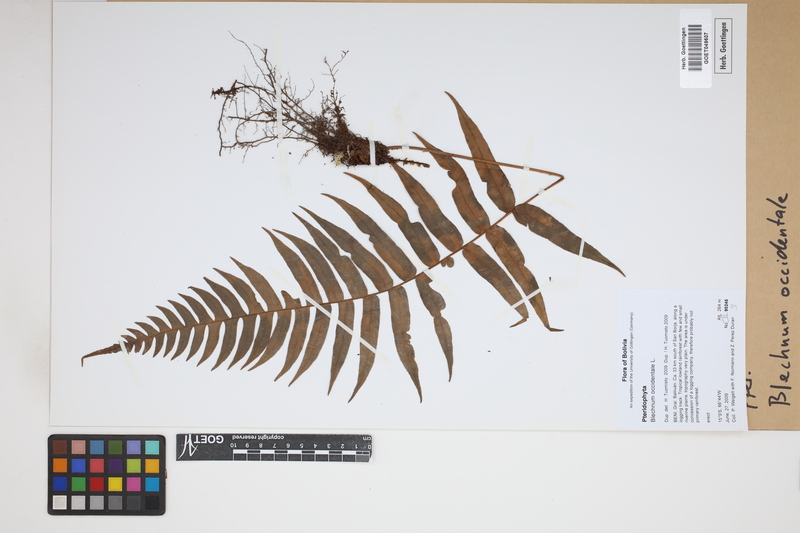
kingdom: Plantae
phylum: Tracheophyta
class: Polypodiopsida
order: Polypodiales
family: Blechnaceae
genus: Blechnum
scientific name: Blechnum occidentale
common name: Hammock fern
